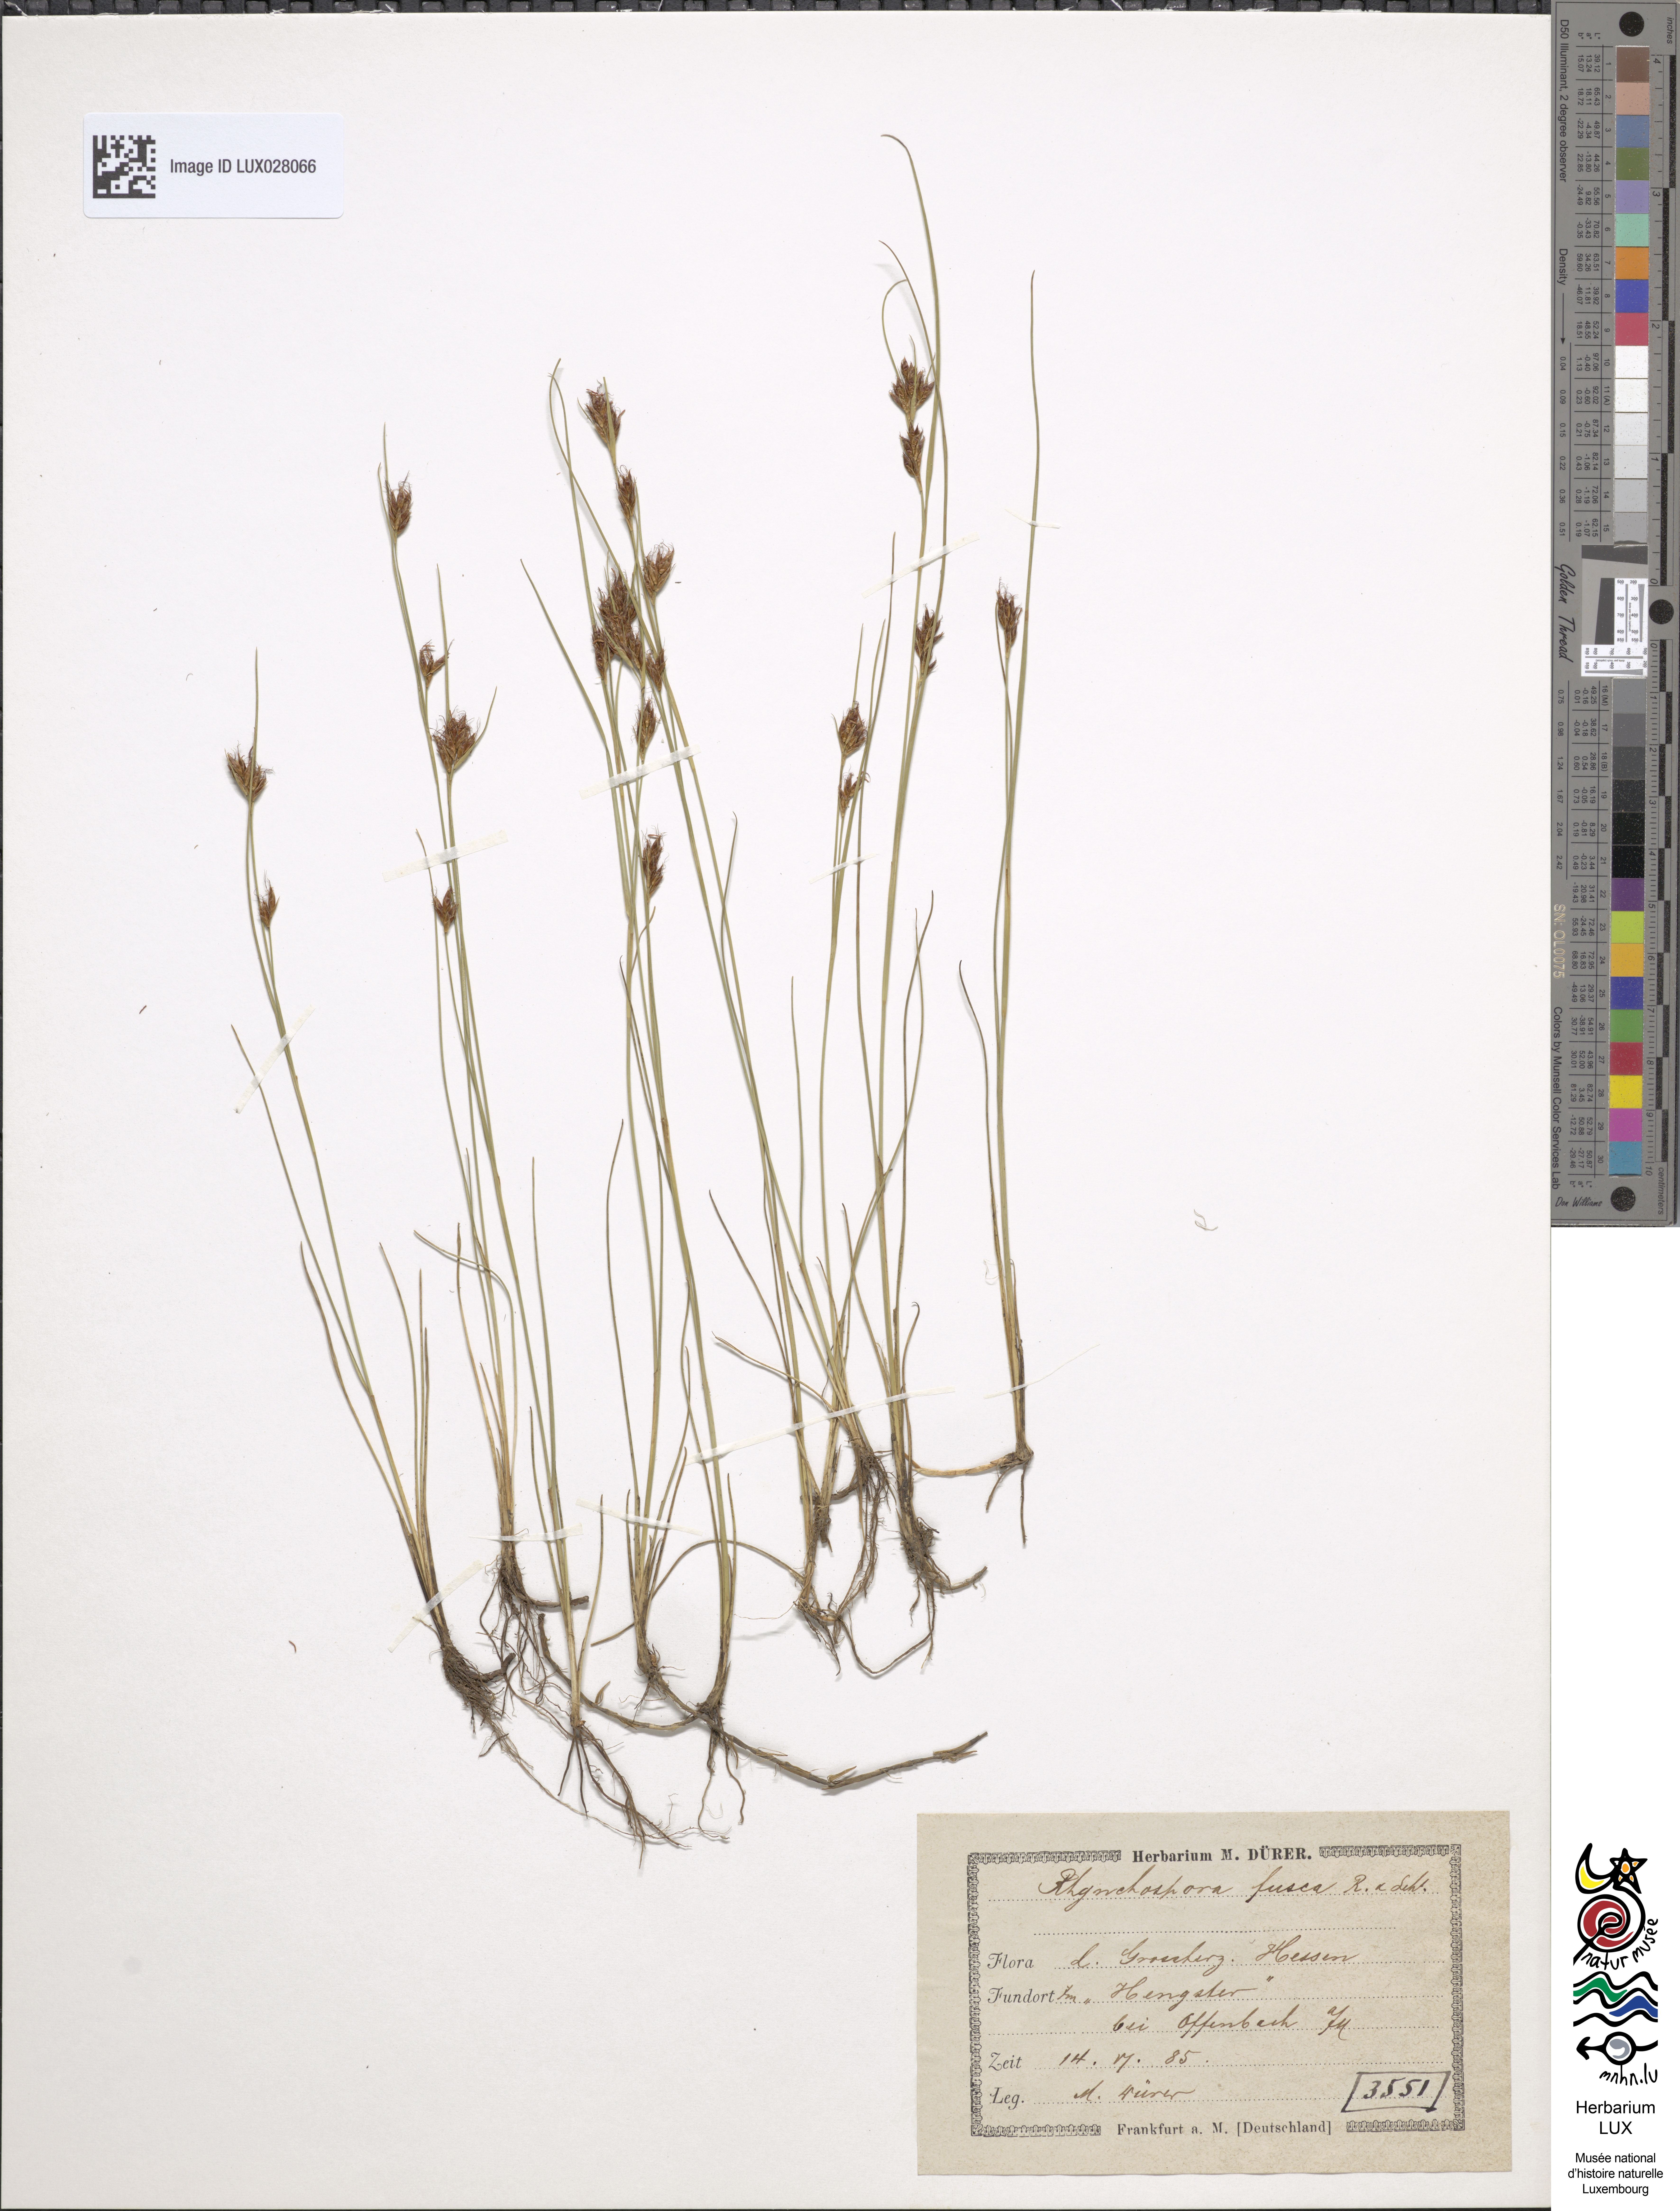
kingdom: Plantae
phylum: Tracheophyta
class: Liliopsida
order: Poales
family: Cyperaceae
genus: Rhynchospora
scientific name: Rhynchospora fusca
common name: Brown beak-sedge
